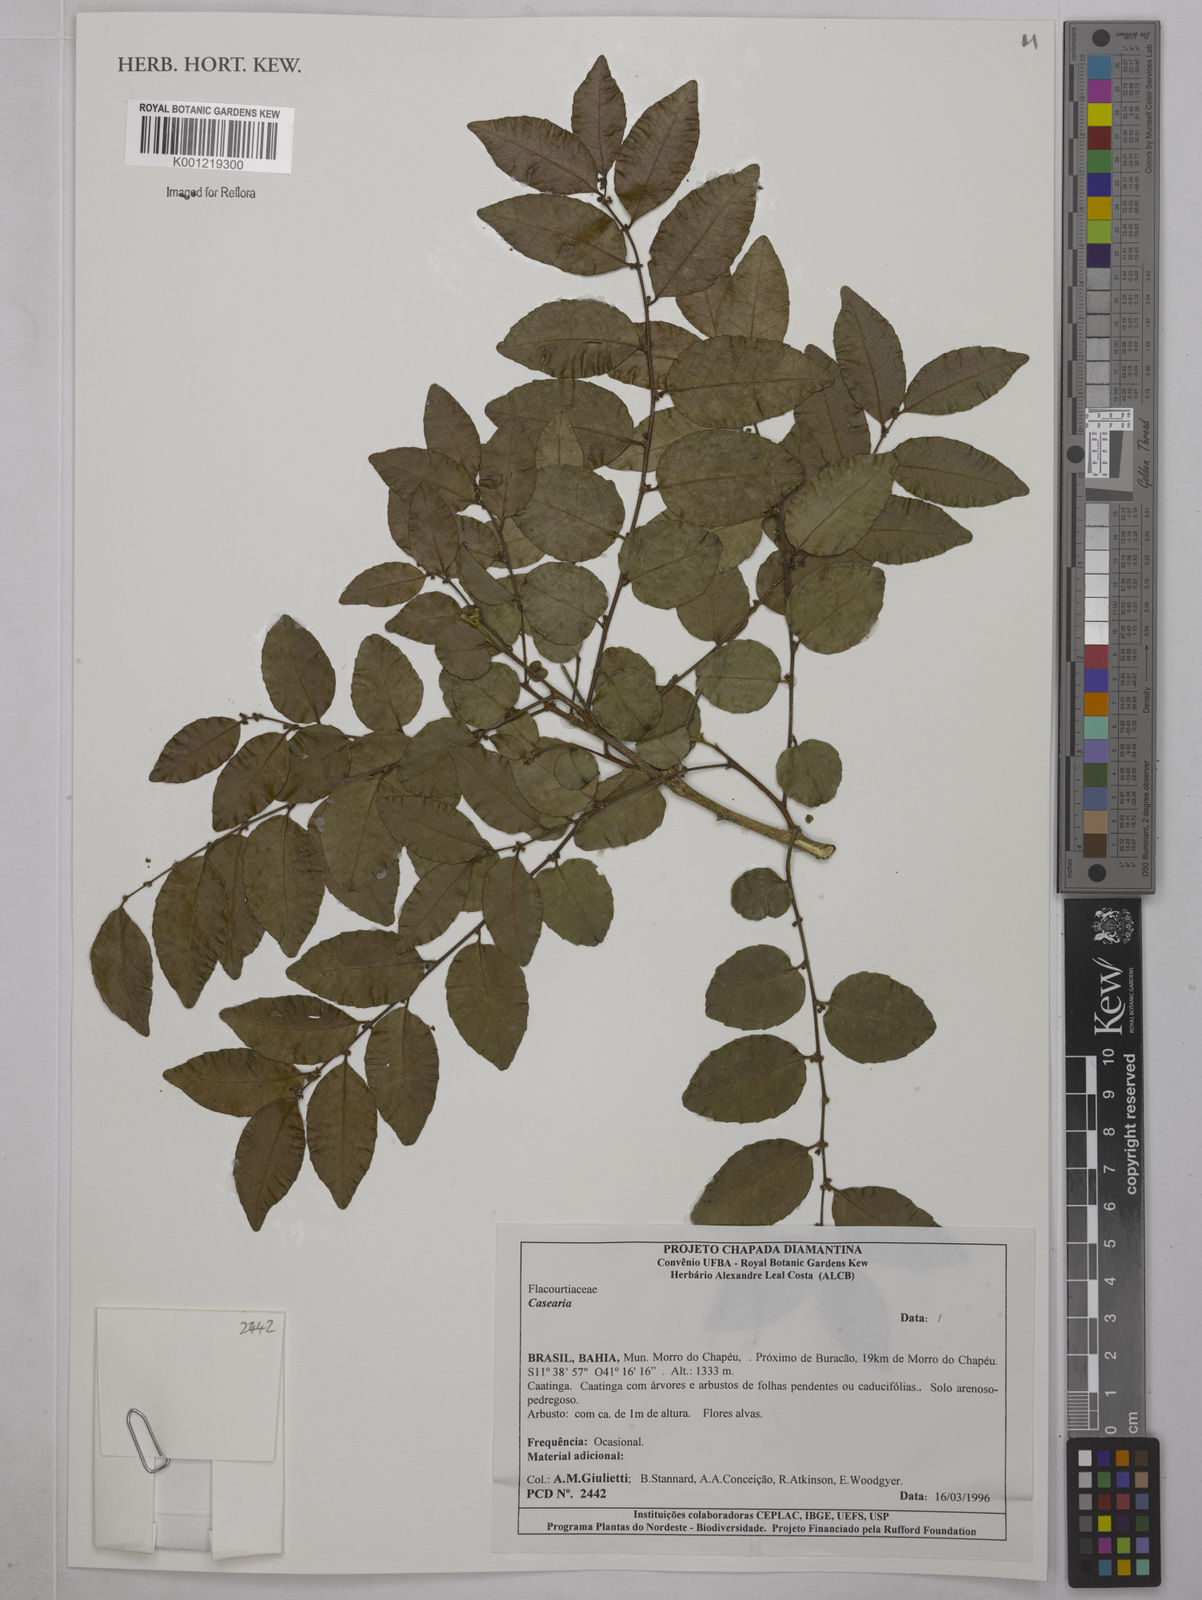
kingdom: Plantae
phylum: Tracheophyta
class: Magnoliopsida
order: Malpighiales
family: Salicaceae
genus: Casearia
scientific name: Casearia
